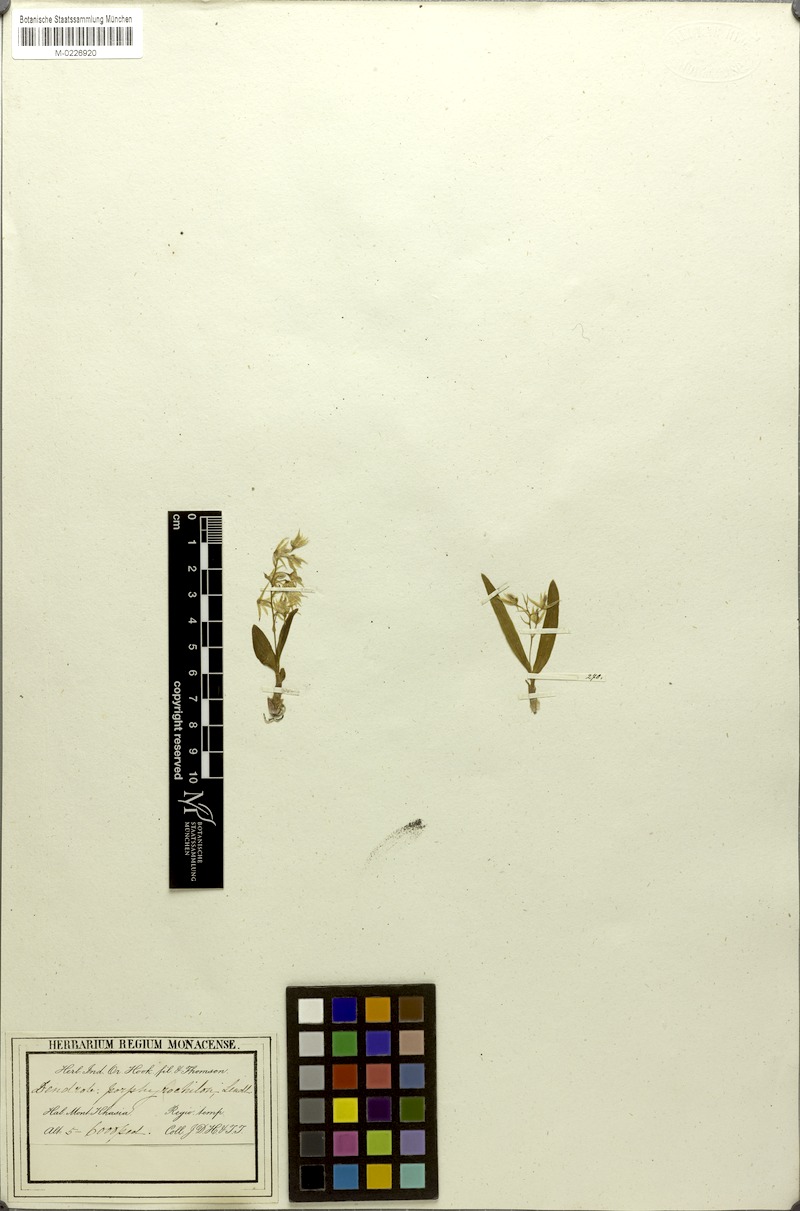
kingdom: Plantae
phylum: Tracheophyta
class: Liliopsida
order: Asparagales
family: Orchidaceae
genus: Dendrobium
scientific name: Dendrobium porphyrochilum
